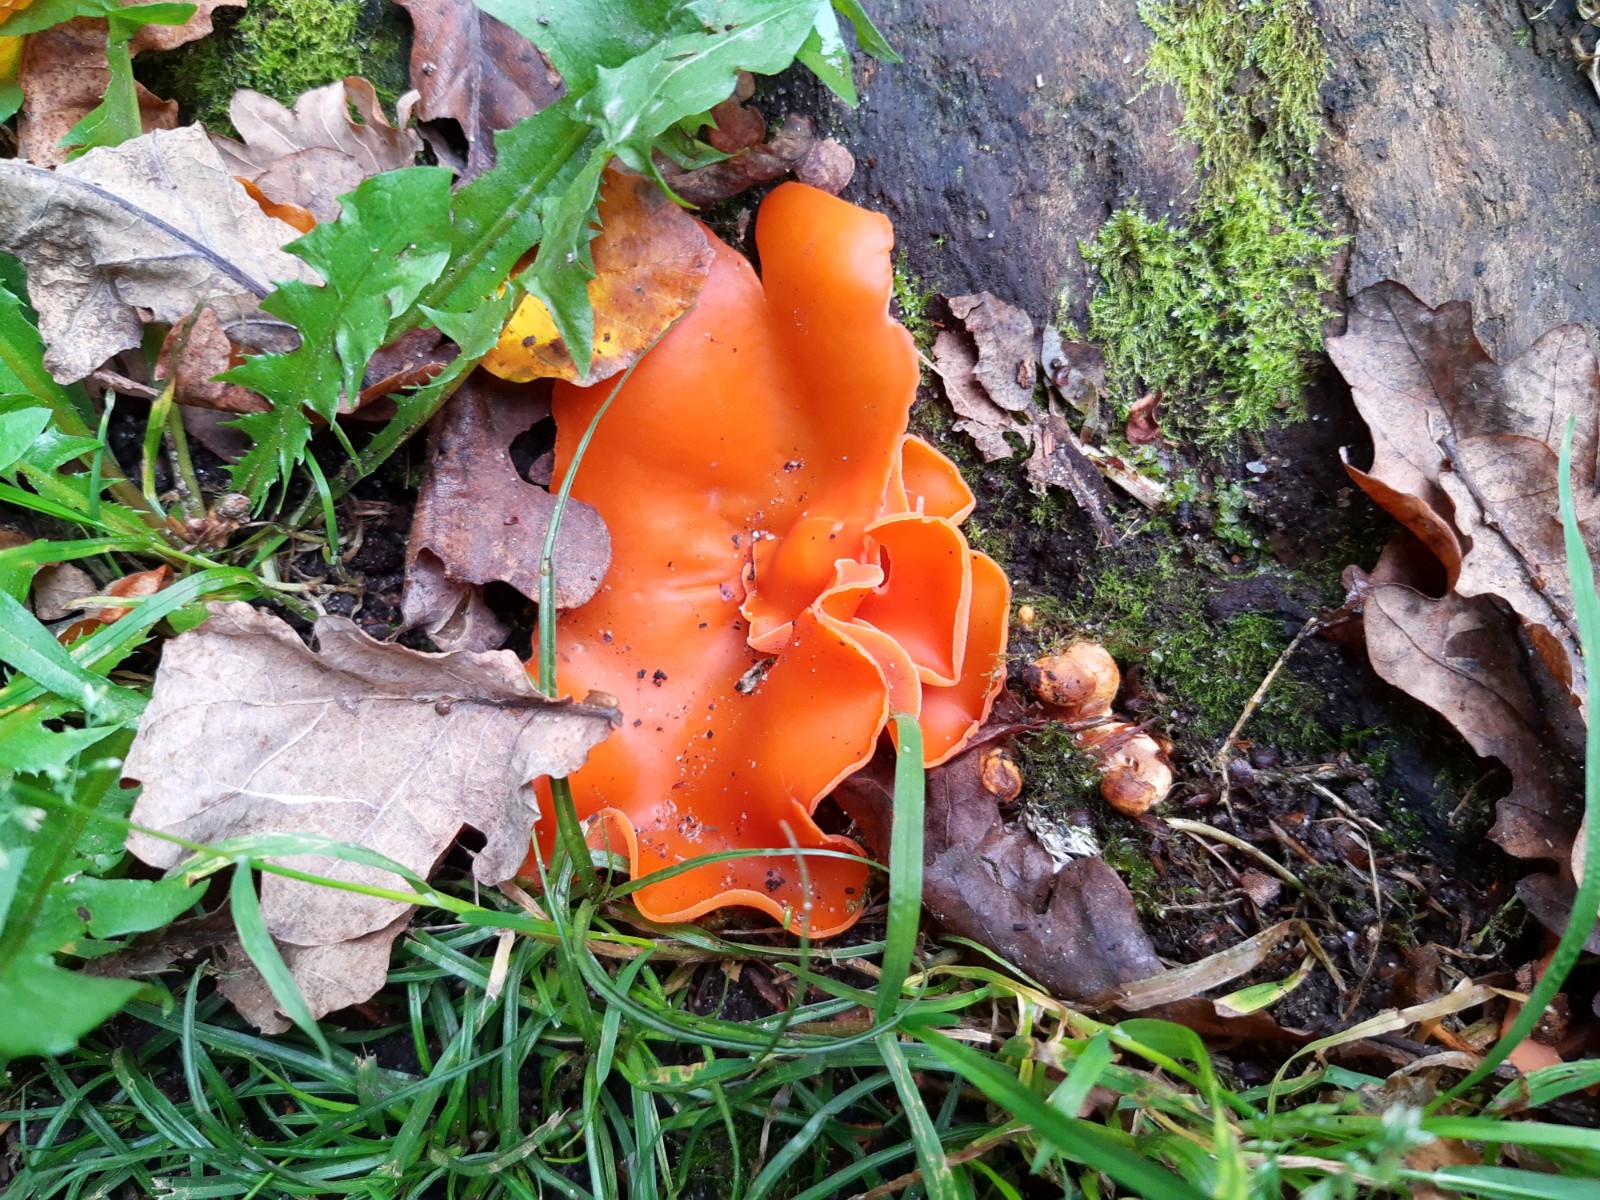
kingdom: Fungi
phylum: Ascomycota
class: Pezizomycetes
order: Pezizales
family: Pyronemataceae
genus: Aleuria
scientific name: Aleuria aurantia
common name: almindelig orangebæger
